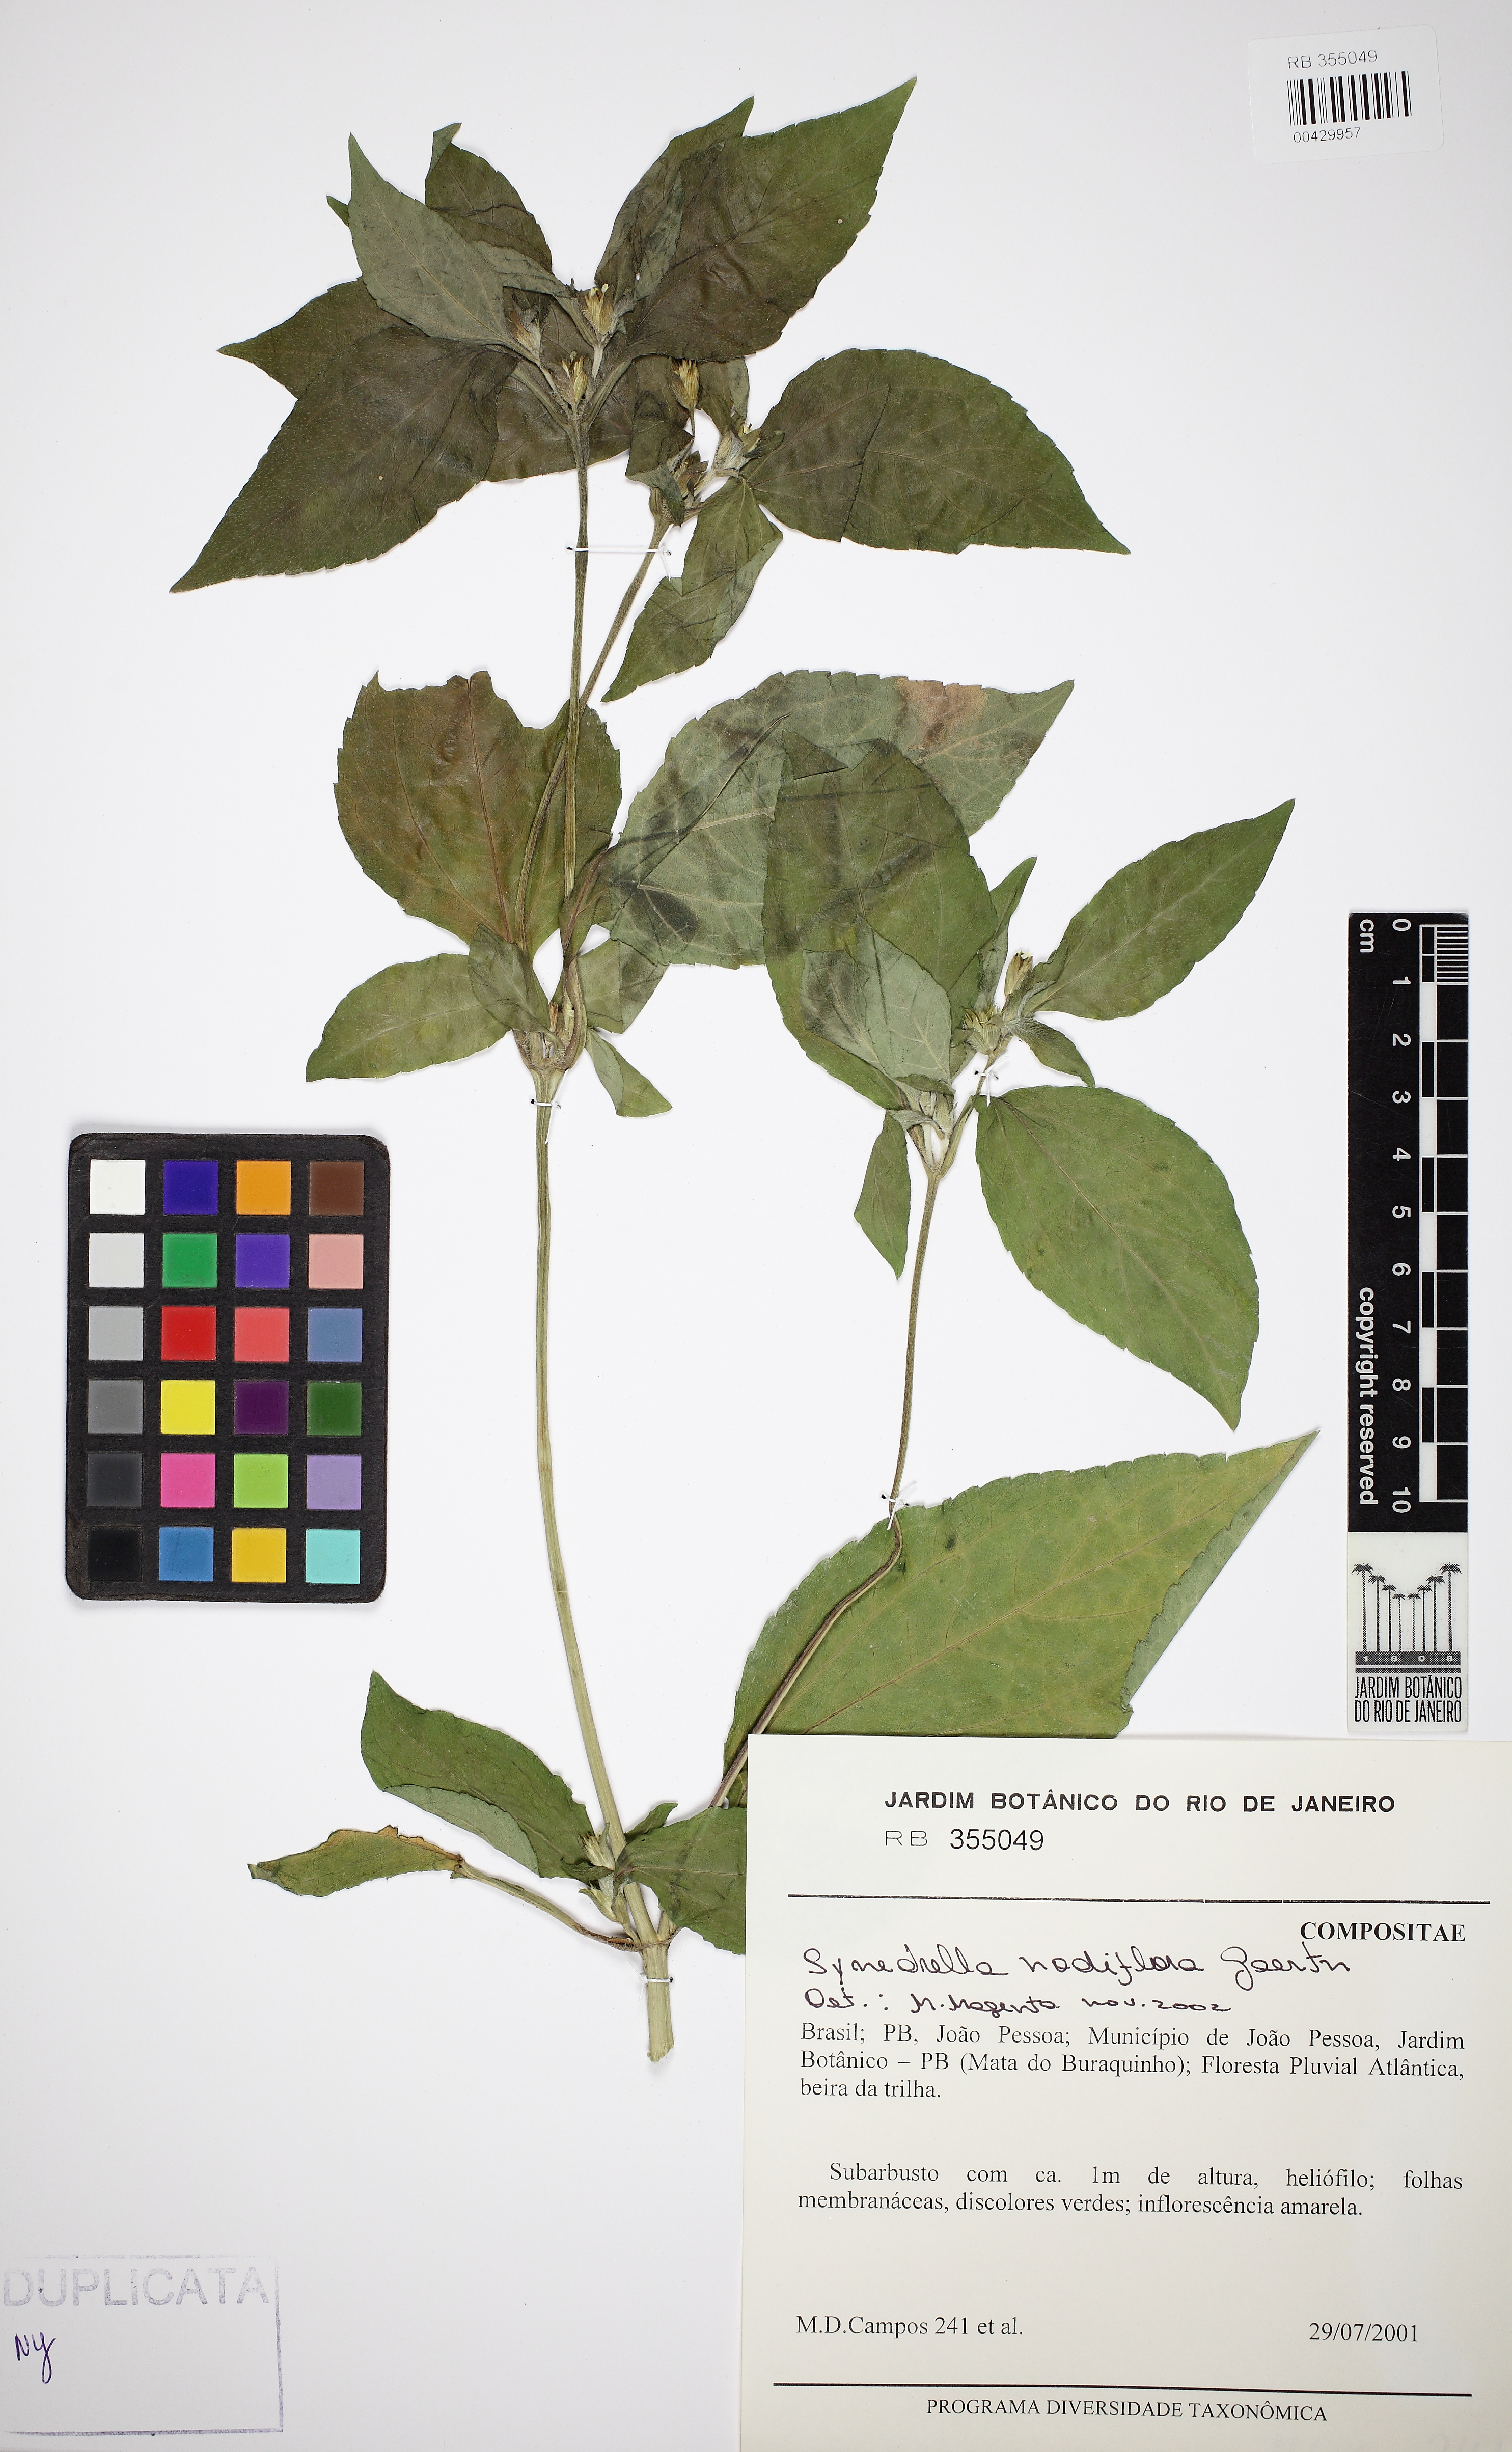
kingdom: Plantae
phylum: Tracheophyta
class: Magnoliopsida
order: Asterales
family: Asteraceae
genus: Synedrella
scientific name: Synedrella nodiflora
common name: Nodeweed
